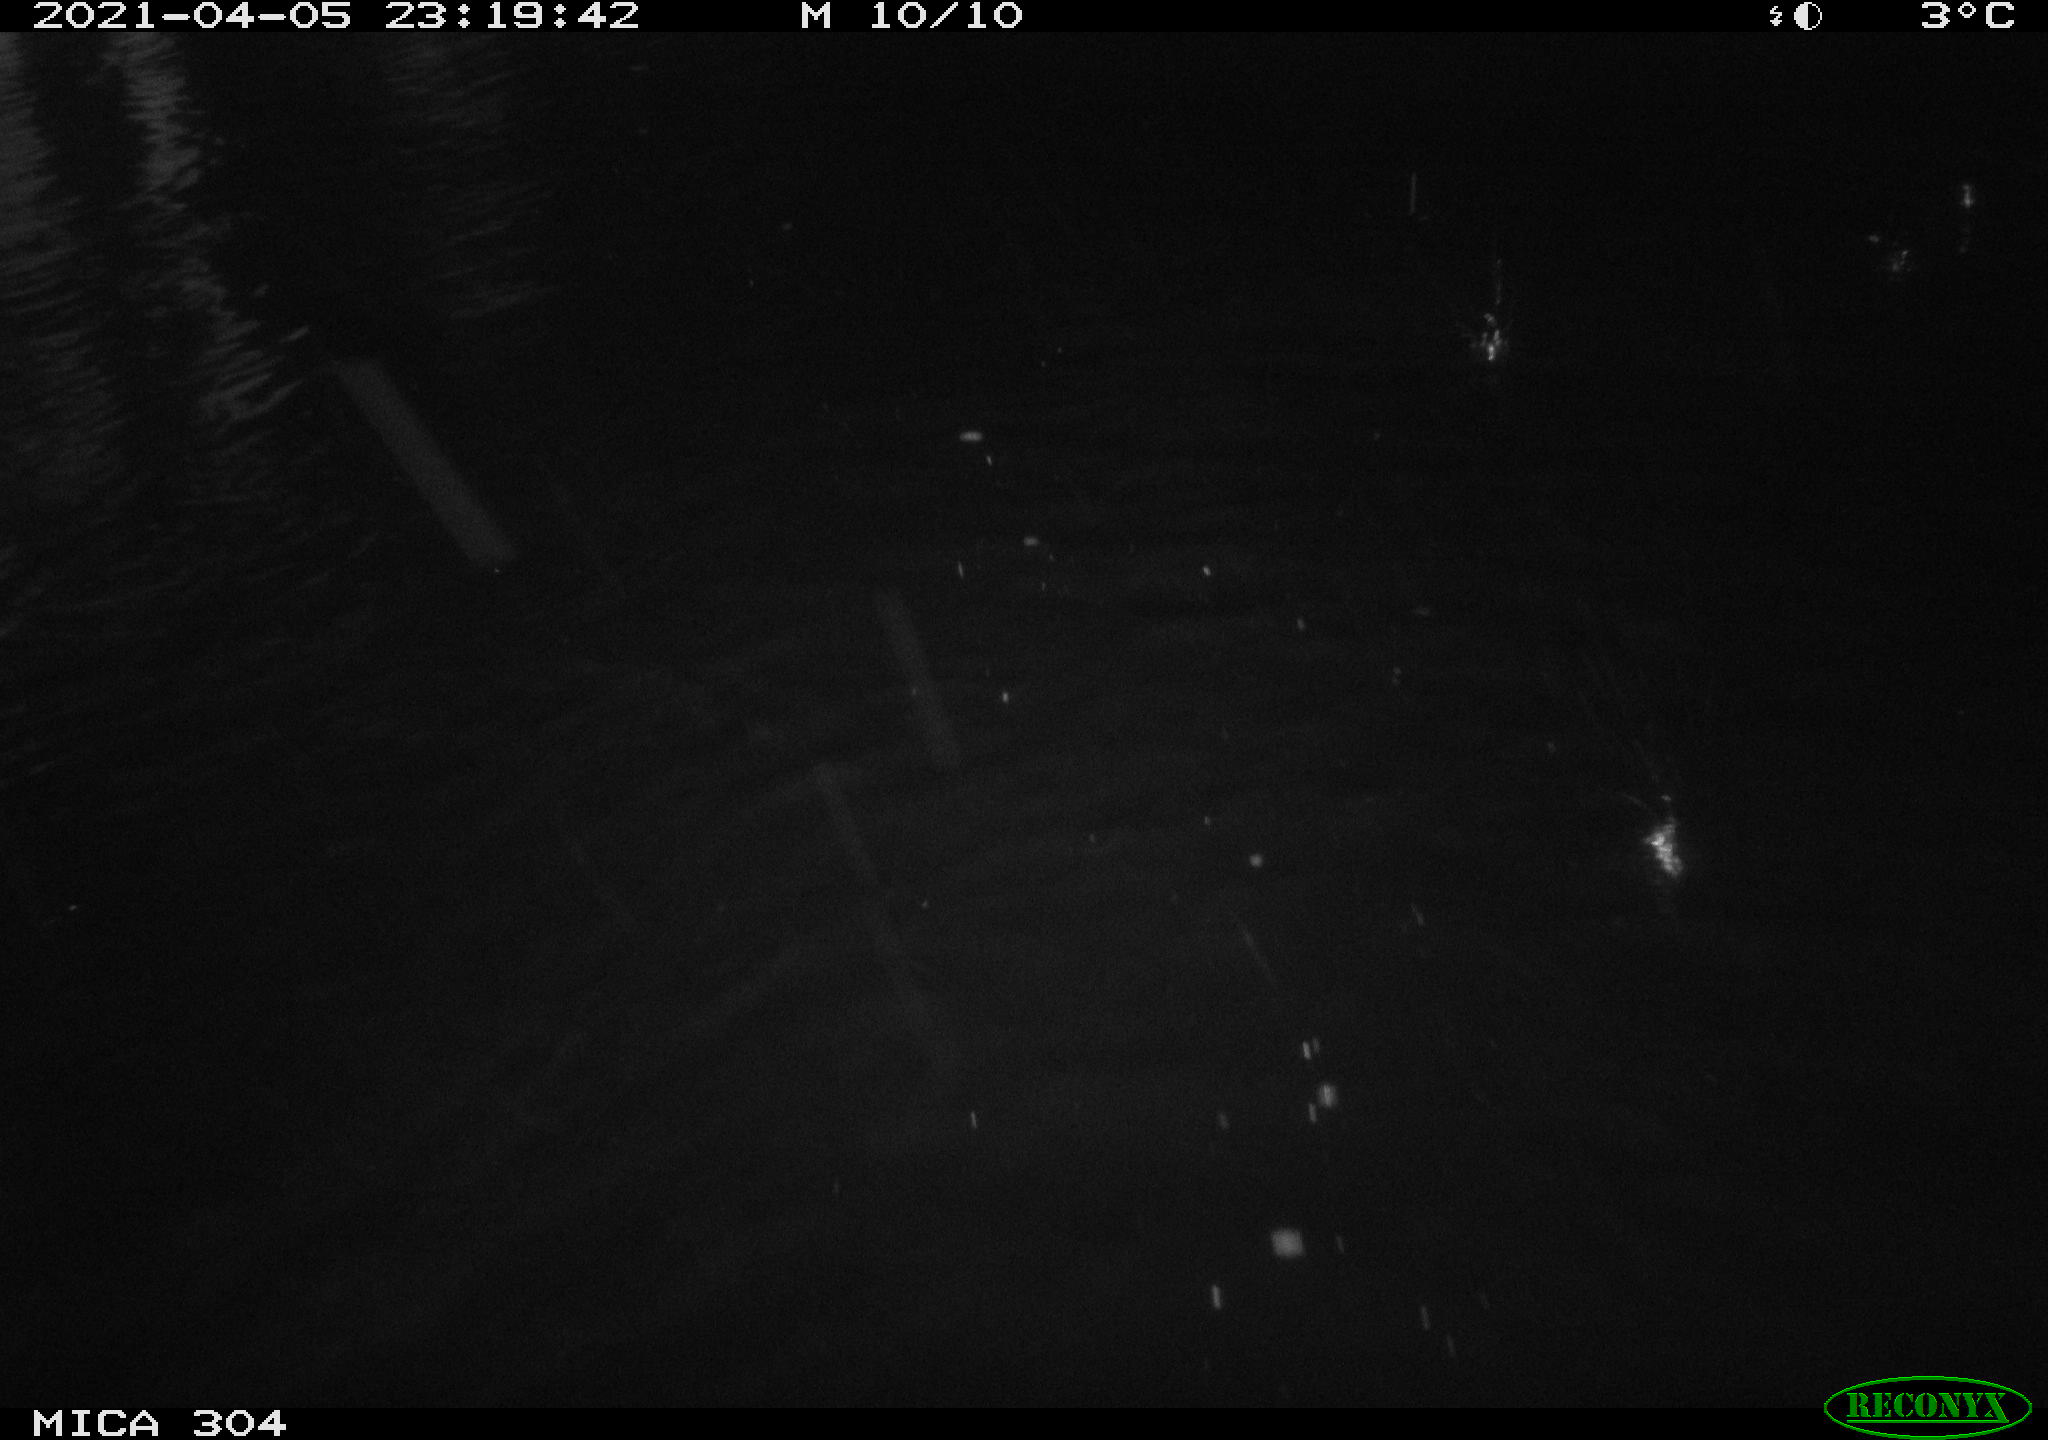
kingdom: Animalia
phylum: Chordata
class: Aves
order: Anseriformes
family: Anatidae
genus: Anas
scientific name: Anas
